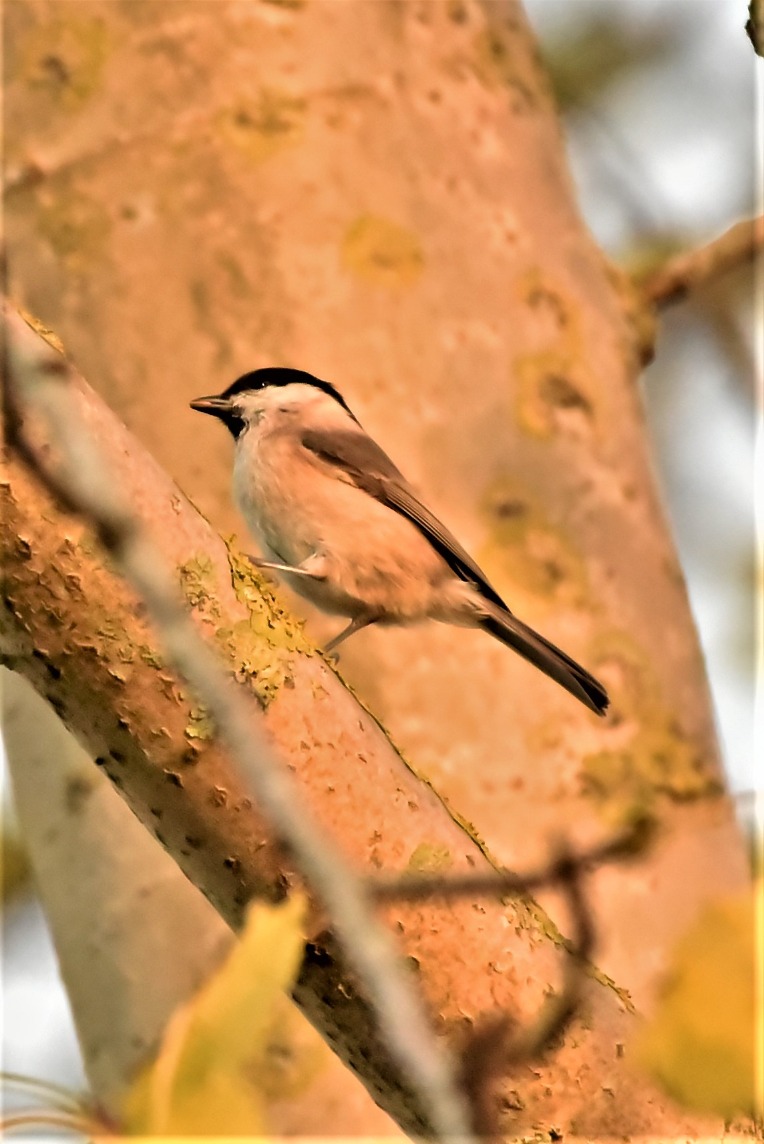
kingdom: Animalia
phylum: Chordata
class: Aves
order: Passeriformes
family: Paridae
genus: Poecile
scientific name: Poecile palustris
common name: Sumpmejse
